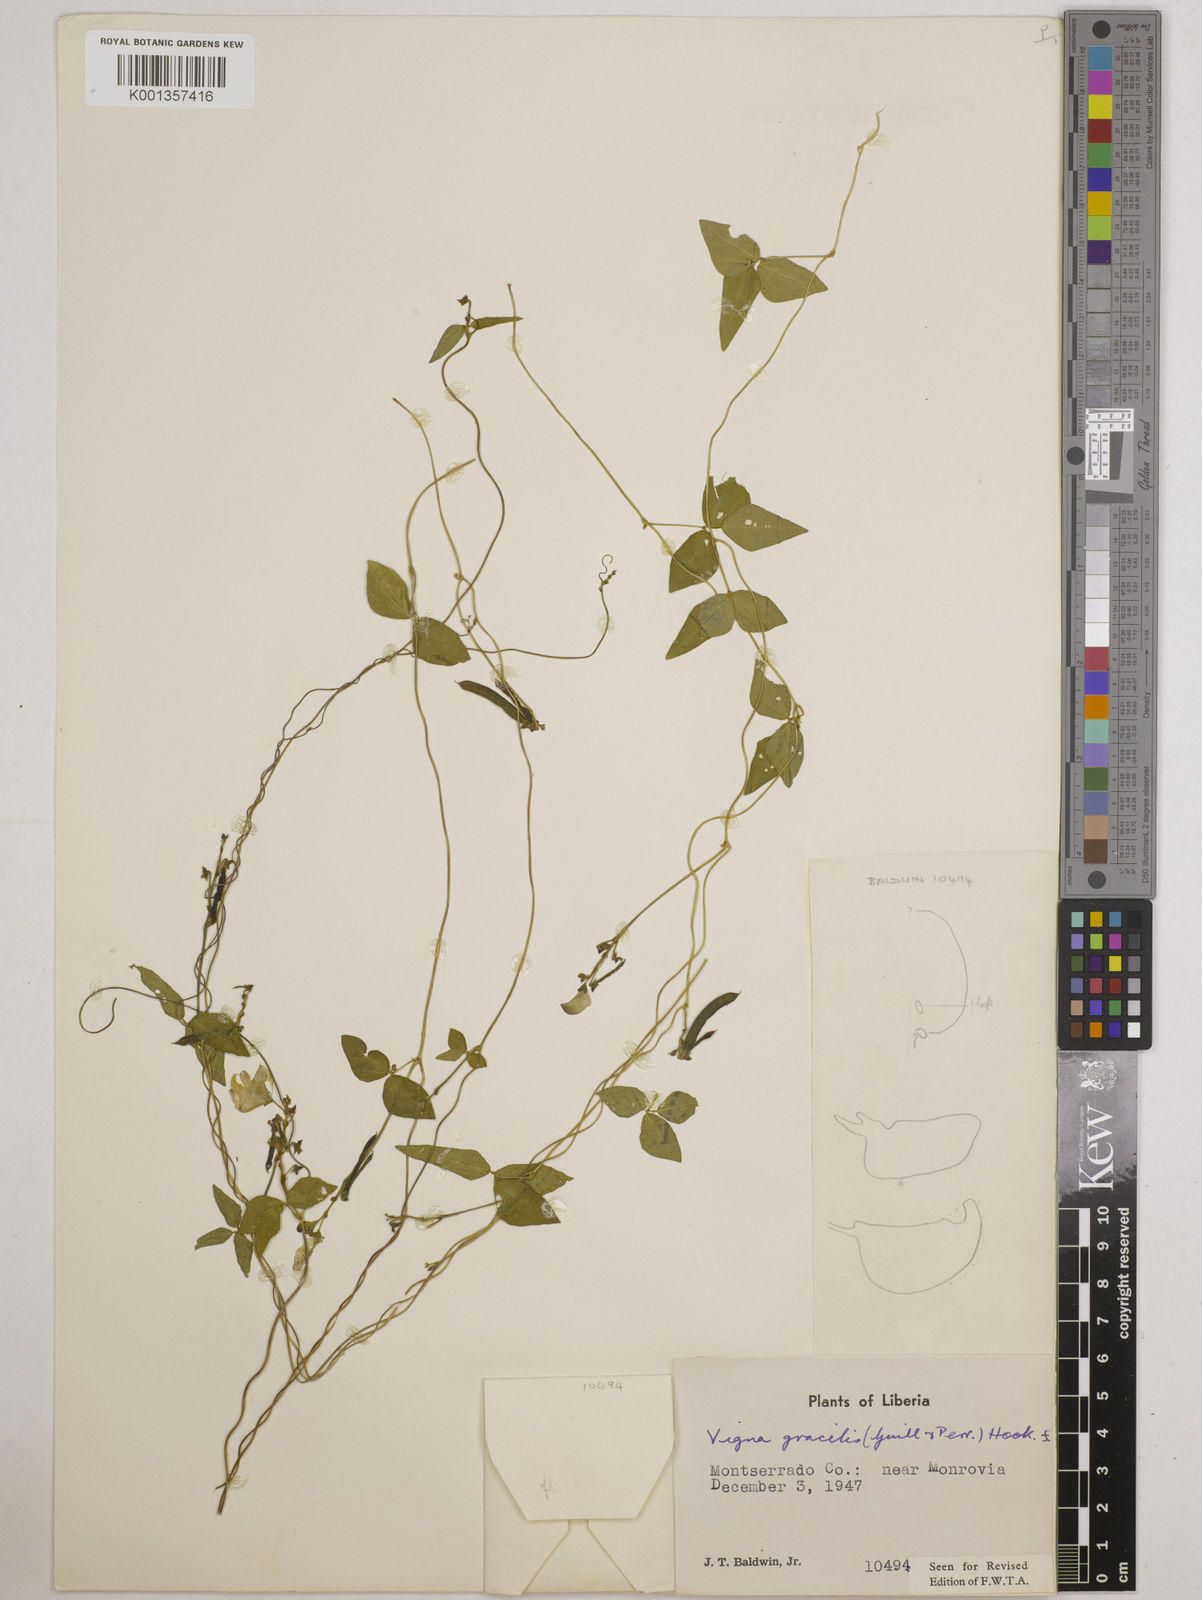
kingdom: Plantae
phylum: Tracheophyta
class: Magnoliopsida
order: Fabales
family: Fabaceae
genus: Vigna
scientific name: Vigna gracilis
